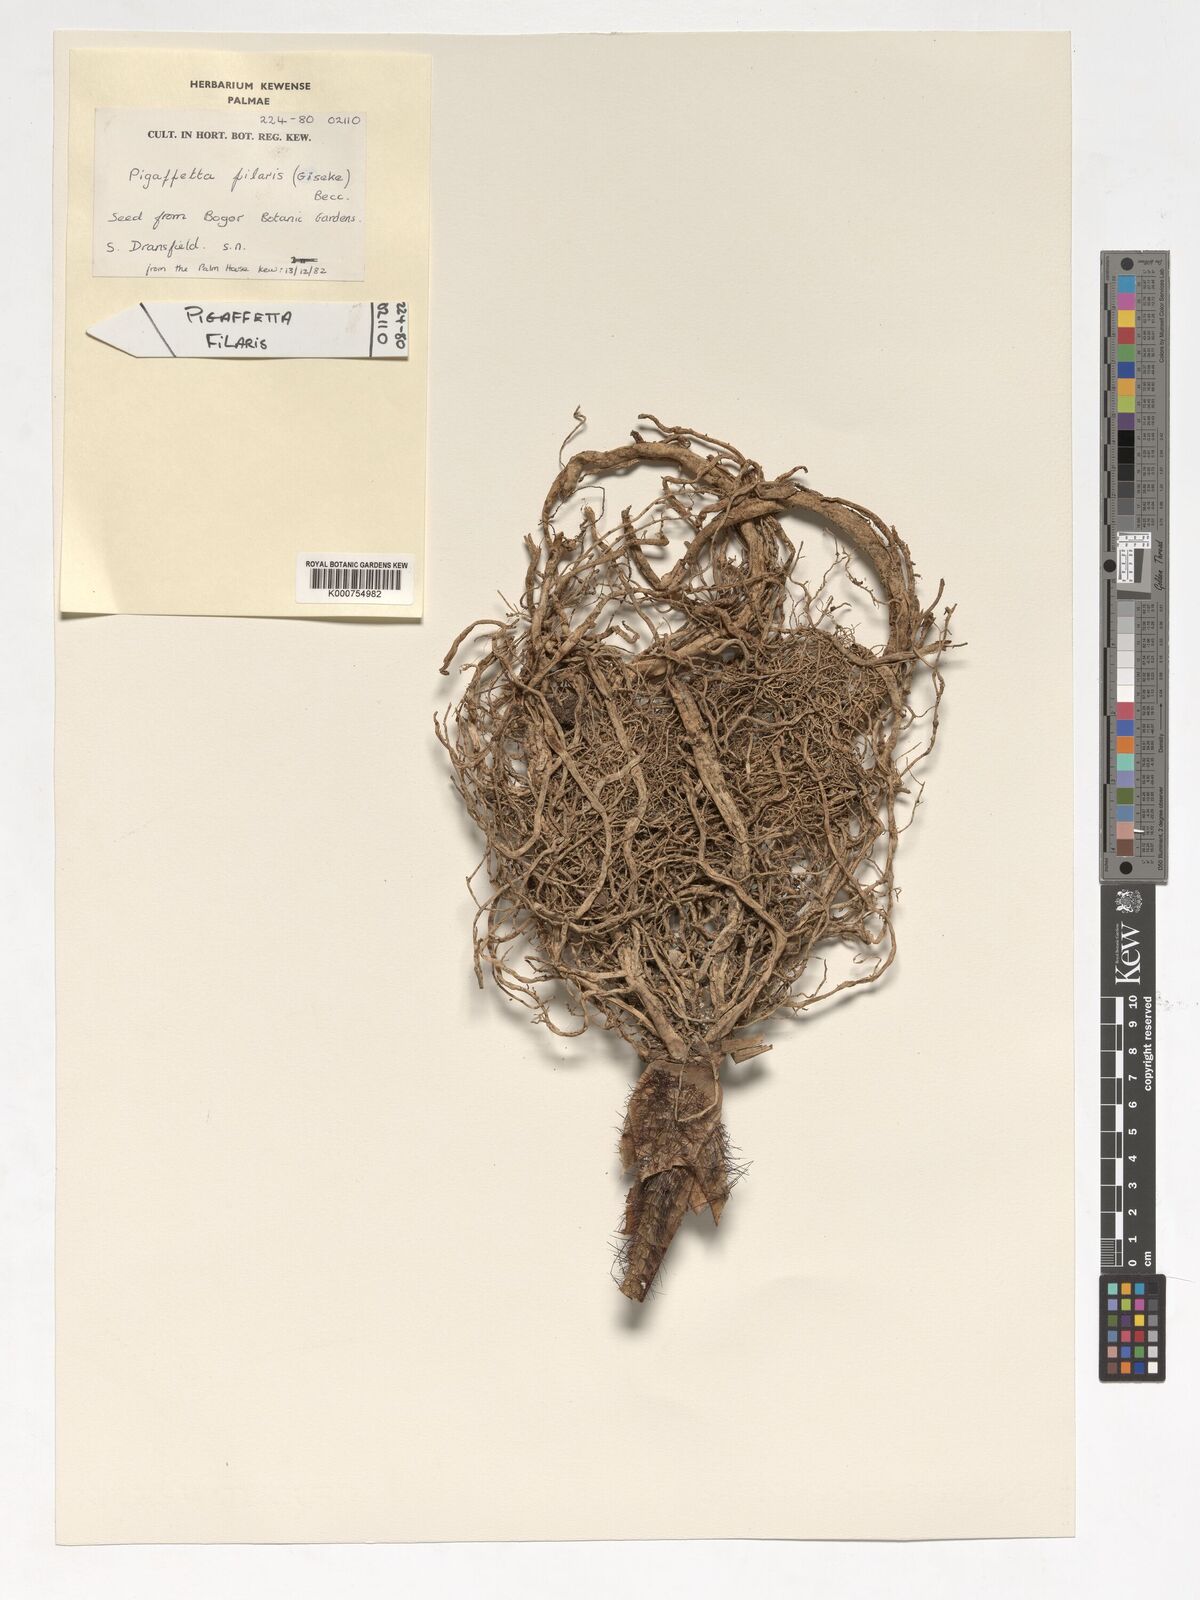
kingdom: Plantae
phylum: Tracheophyta
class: Liliopsida
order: Arecales
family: Arecaceae
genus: Pigafetta
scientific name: Pigafetta filaris
